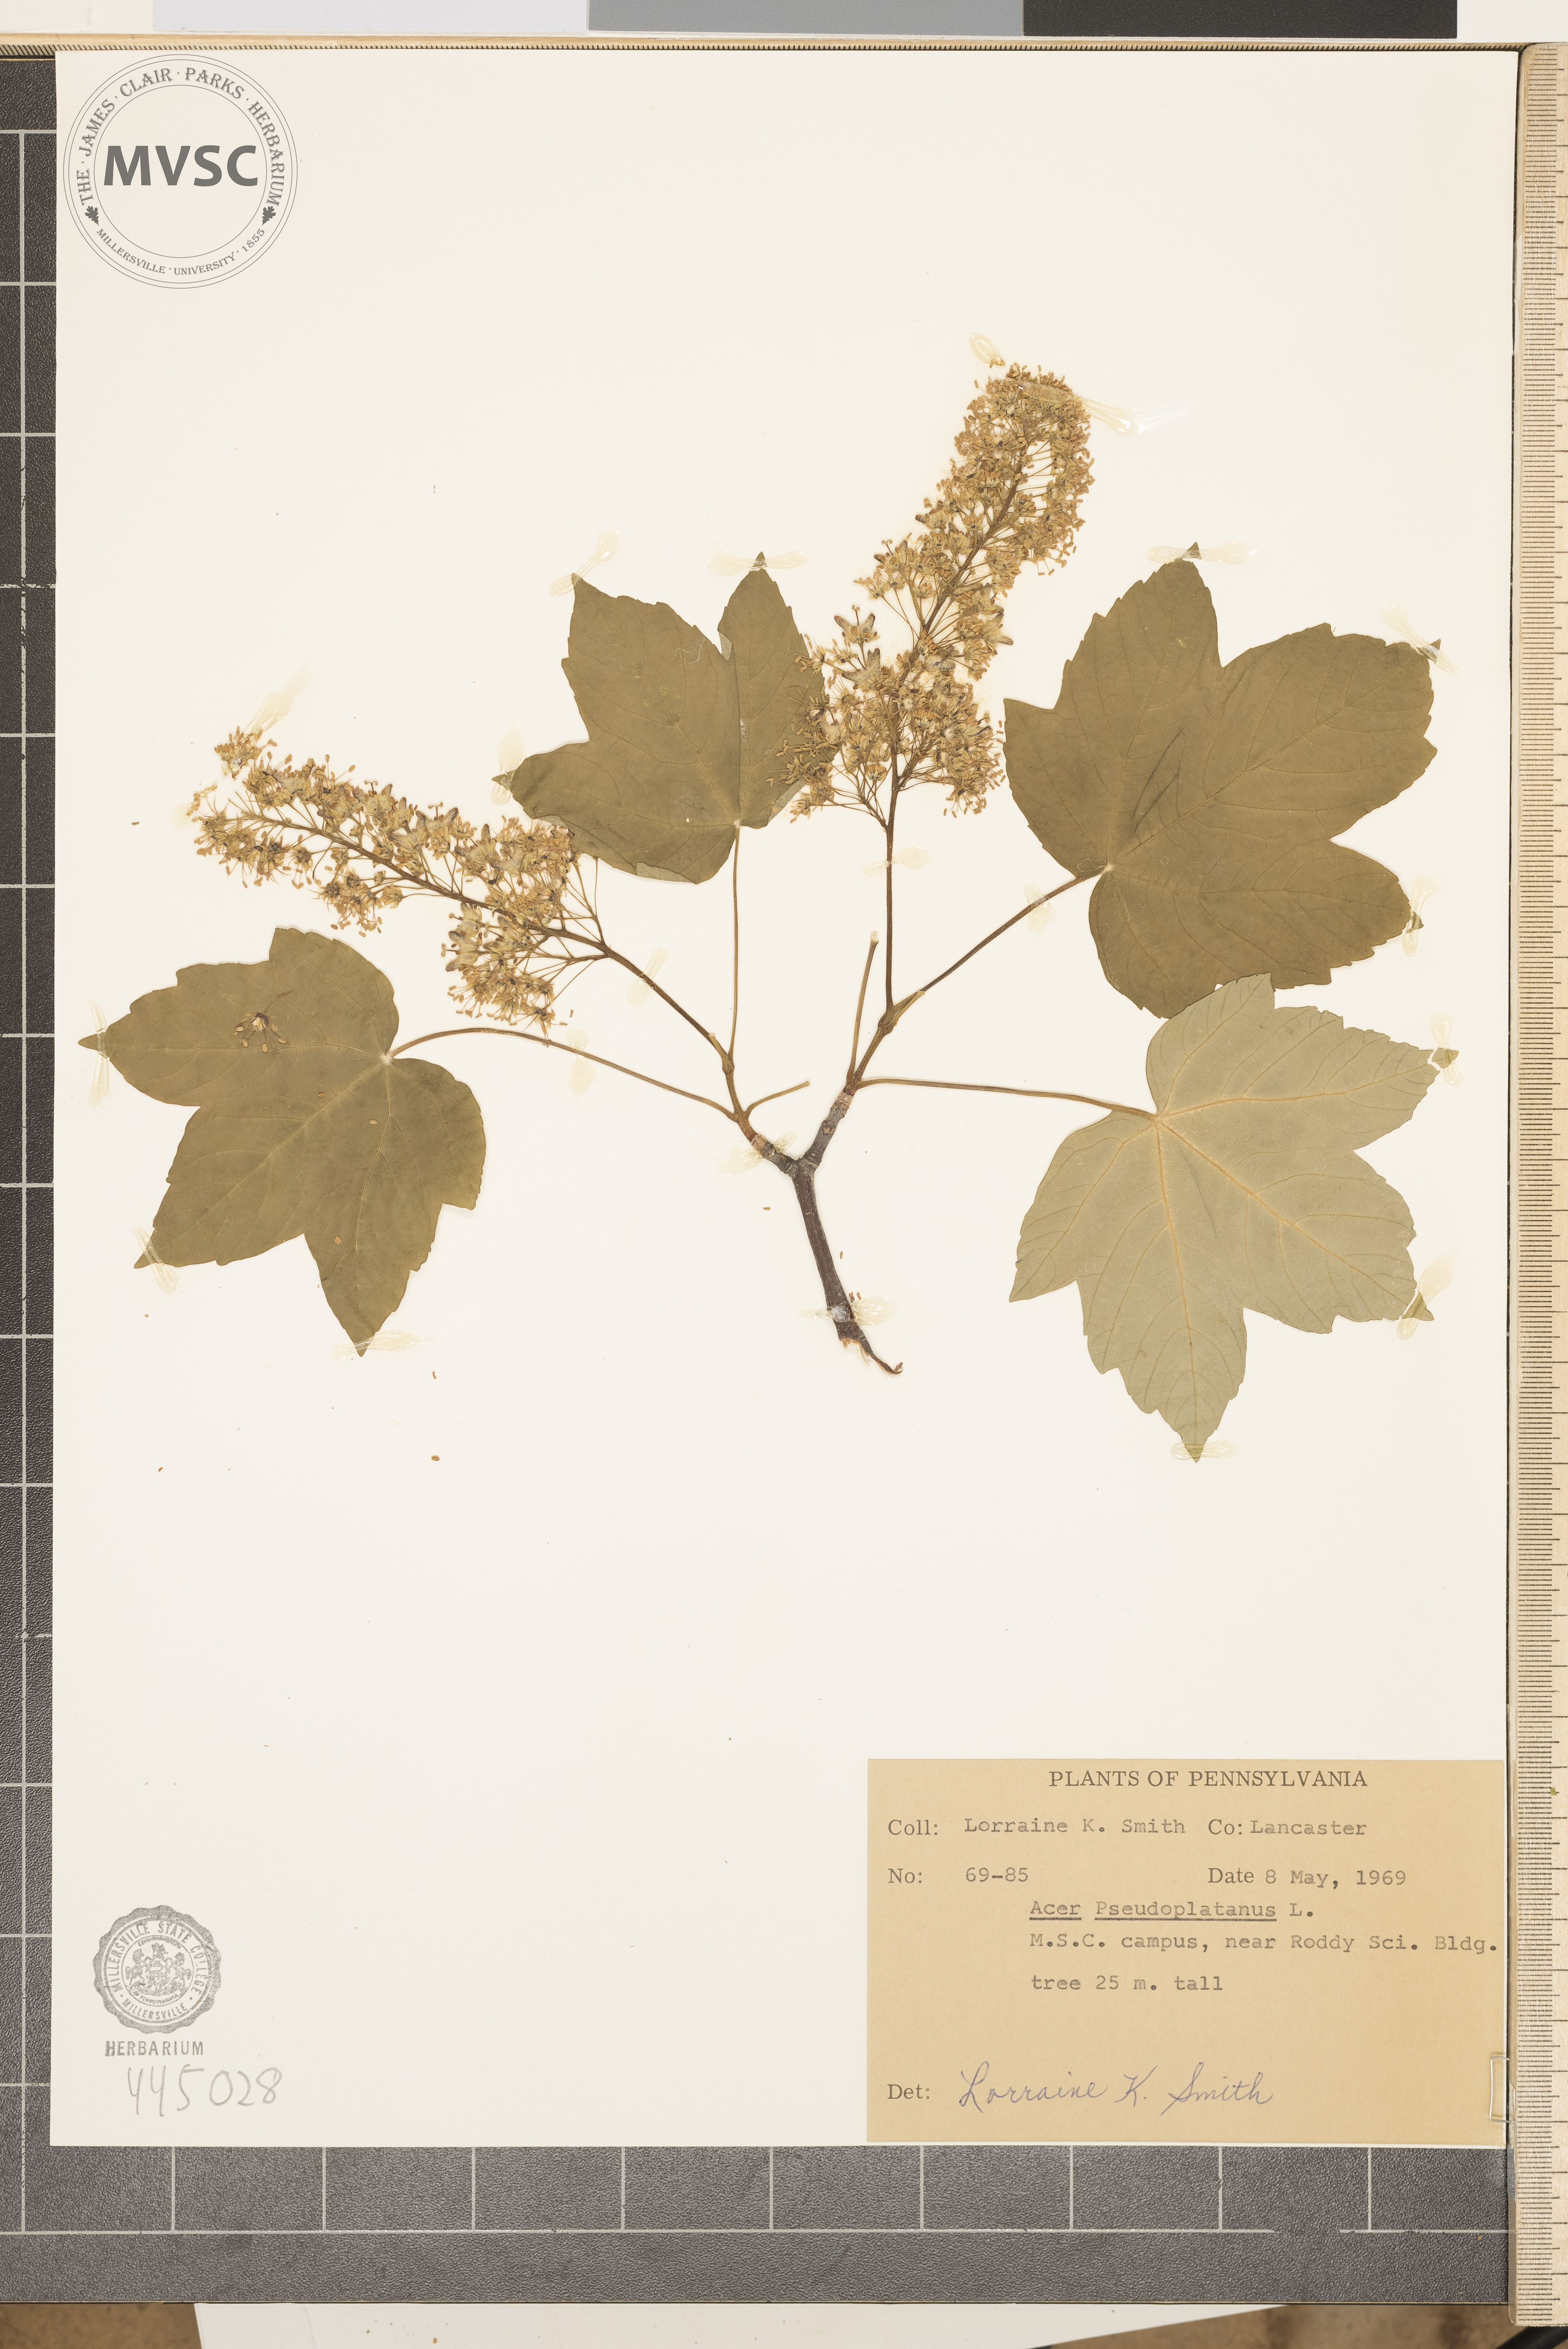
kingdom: Plantae
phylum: Tracheophyta
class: Magnoliopsida
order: Sapindales
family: Sapindaceae
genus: Acer
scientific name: Acer pseudoplatanus
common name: Sycamore
